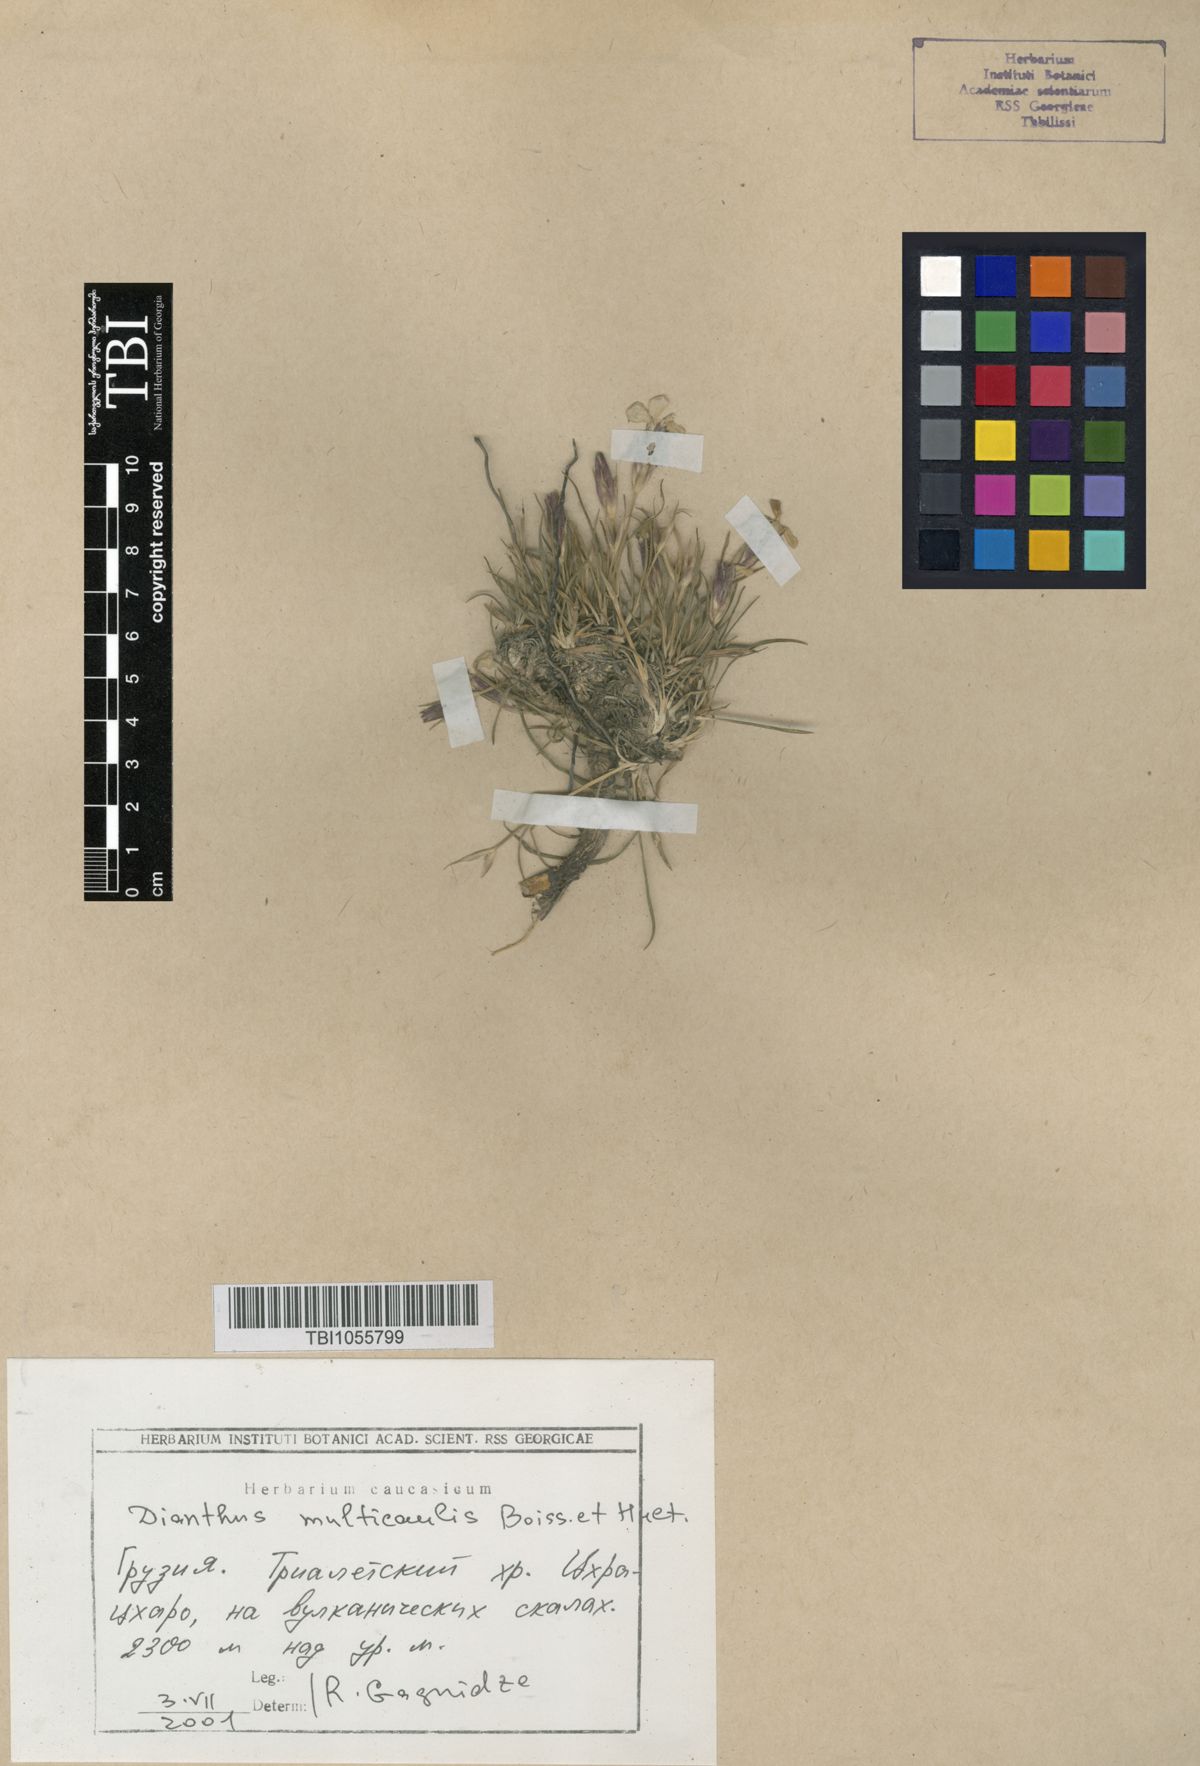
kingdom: Plantae
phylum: Tracheophyta
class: Magnoliopsida
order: Caryophyllales
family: Caryophyllaceae
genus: Dianthus
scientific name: Dianthus cretaceus
